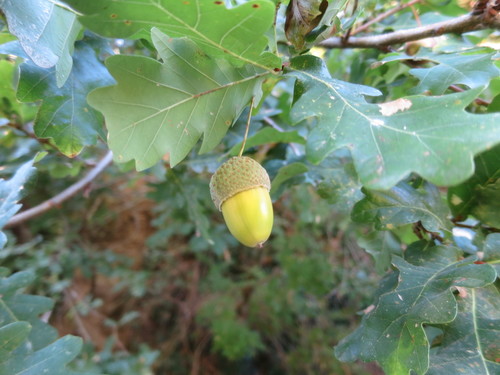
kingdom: Plantae
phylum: Tracheophyta
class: Magnoliopsida
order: Fagales
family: Fagaceae
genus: Quercus
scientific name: Quercus robur
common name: Pedunculate oak
